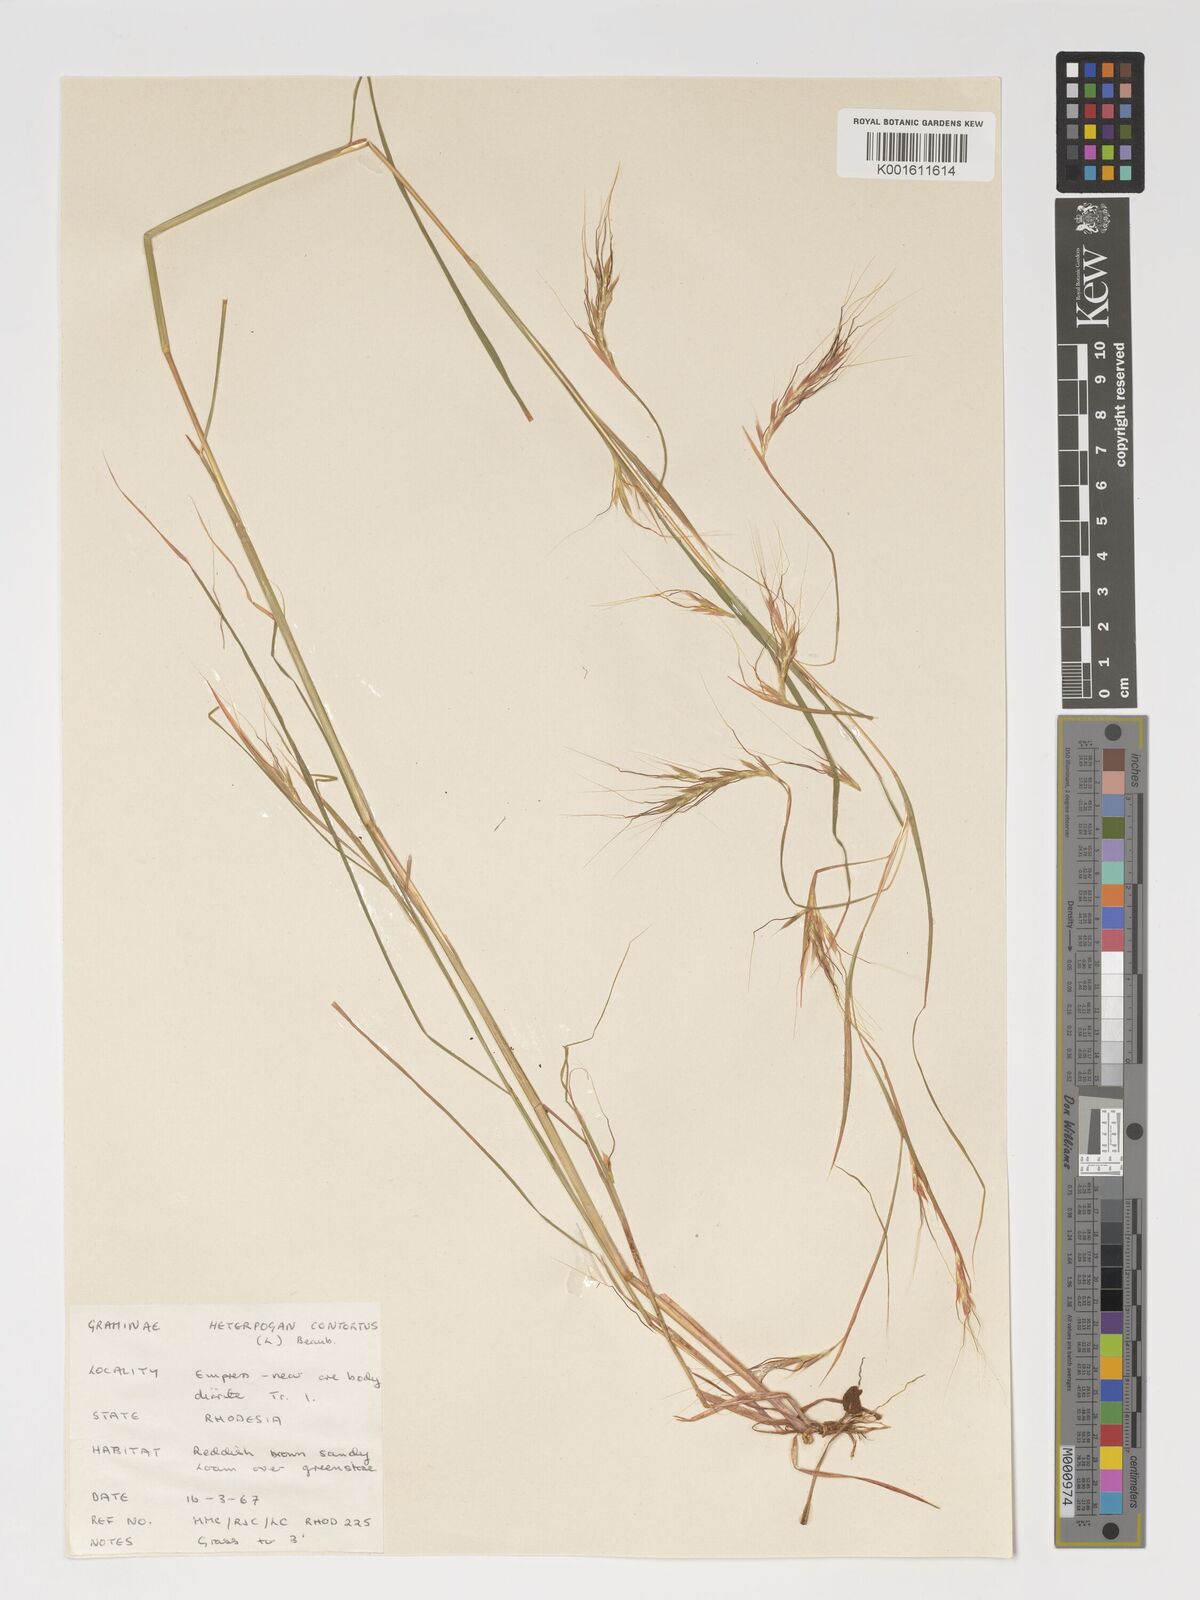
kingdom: Plantae
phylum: Tracheophyta
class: Liliopsida
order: Poales
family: Poaceae
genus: Heteropogon
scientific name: Heteropogon contortus
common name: Tanglehead
